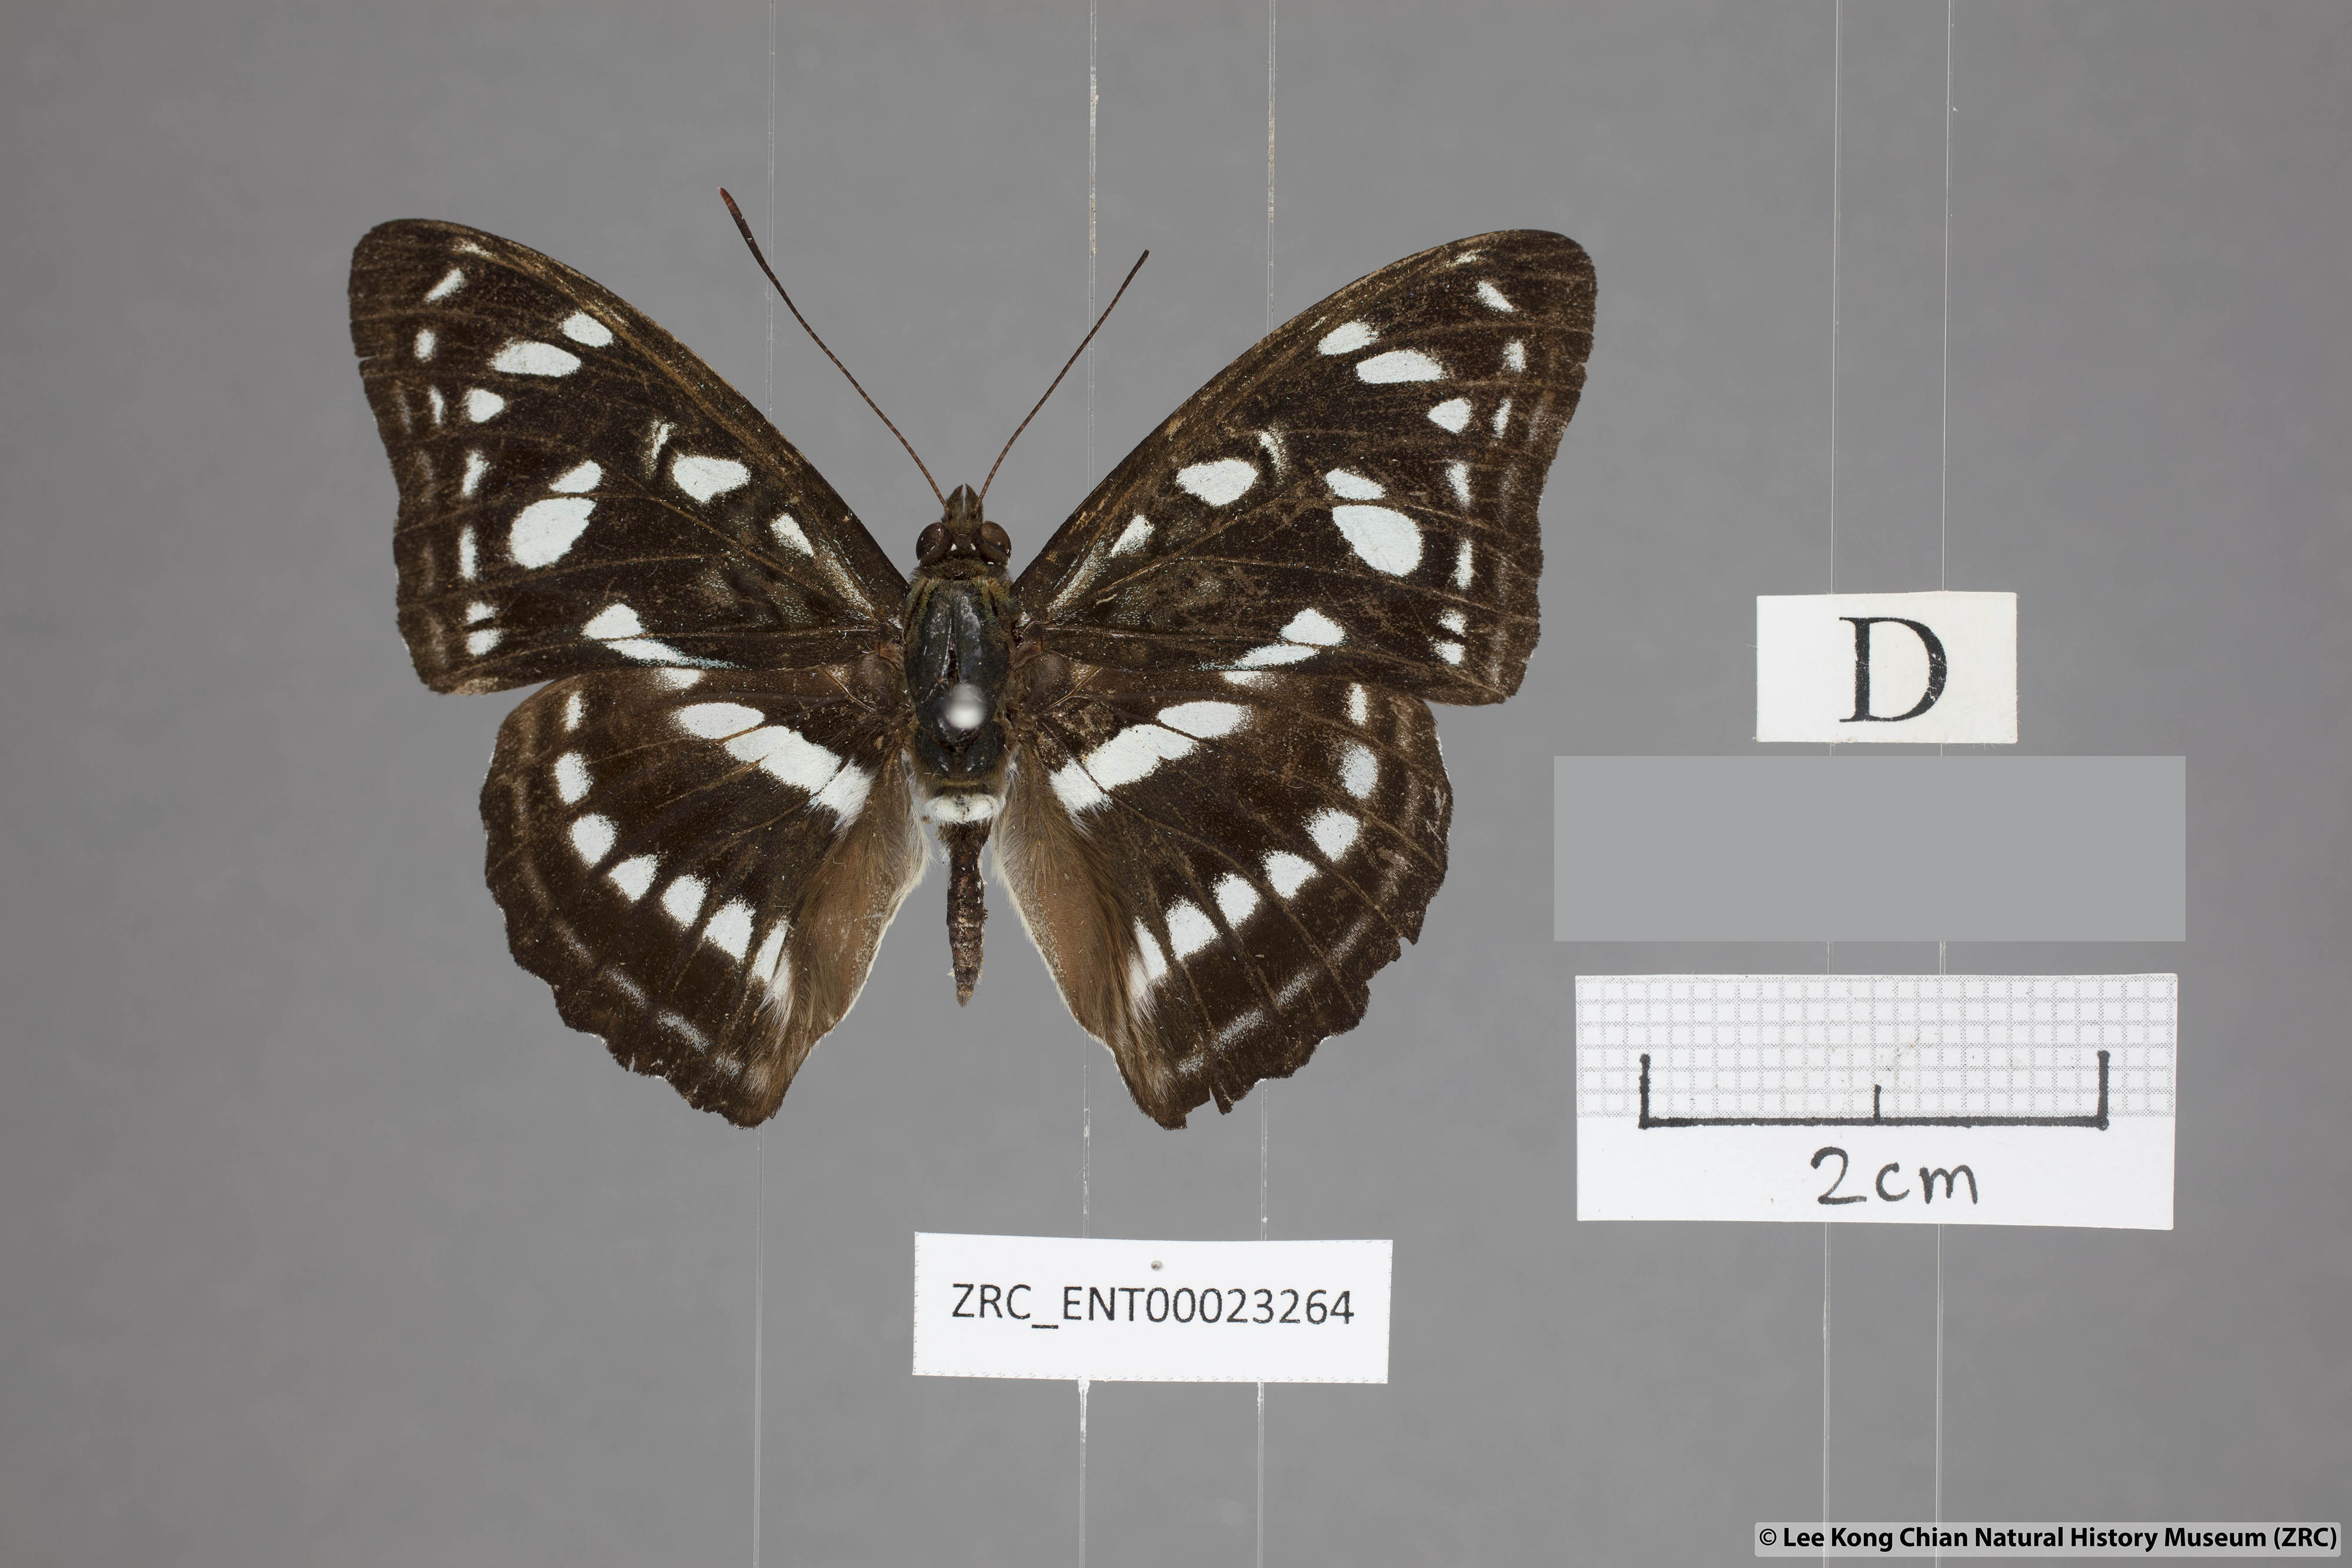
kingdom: Animalia
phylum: Arthropoda
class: Insecta
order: Lepidoptera
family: Nymphalidae
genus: Parathyma
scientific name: Parathyma ranga
